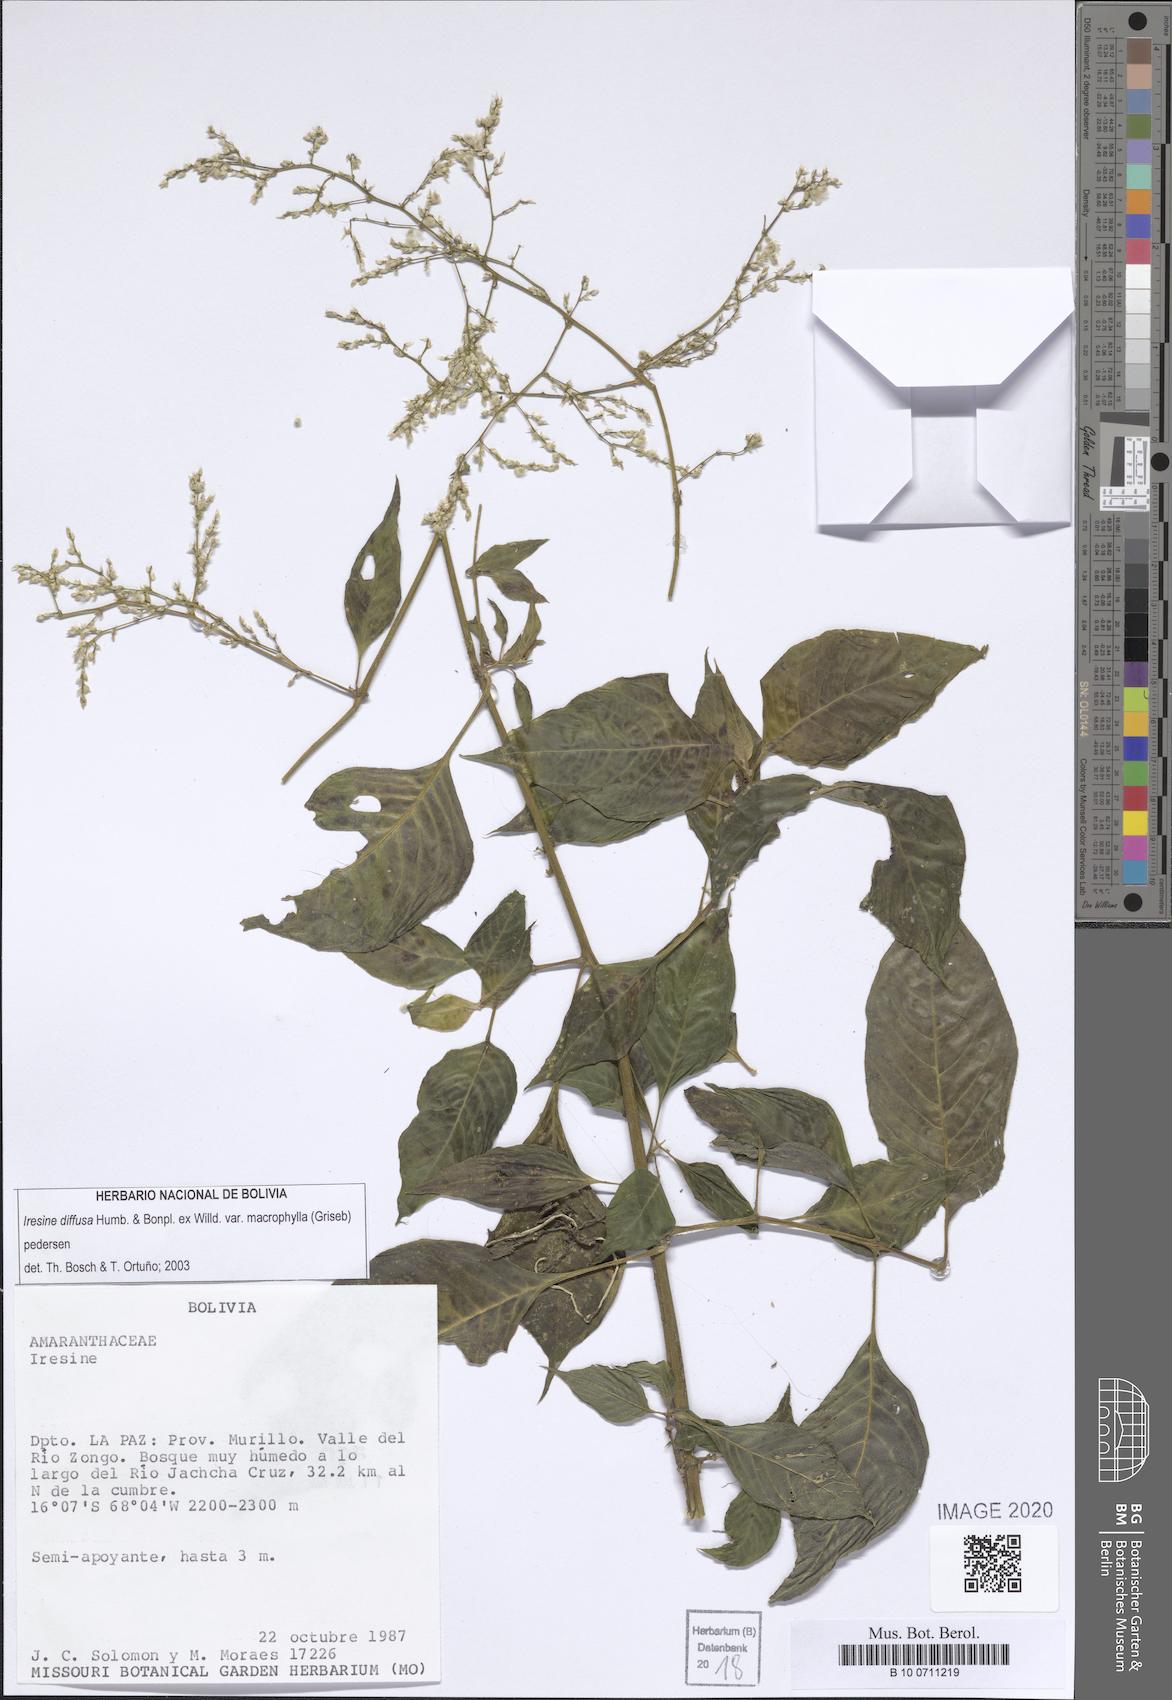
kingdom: Plantae
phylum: Tracheophyta
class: Magnoliopsida
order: Caryophyllales
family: Amaranthaceae
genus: Iresine
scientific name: Iresine diffusa
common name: Juba's-bush
